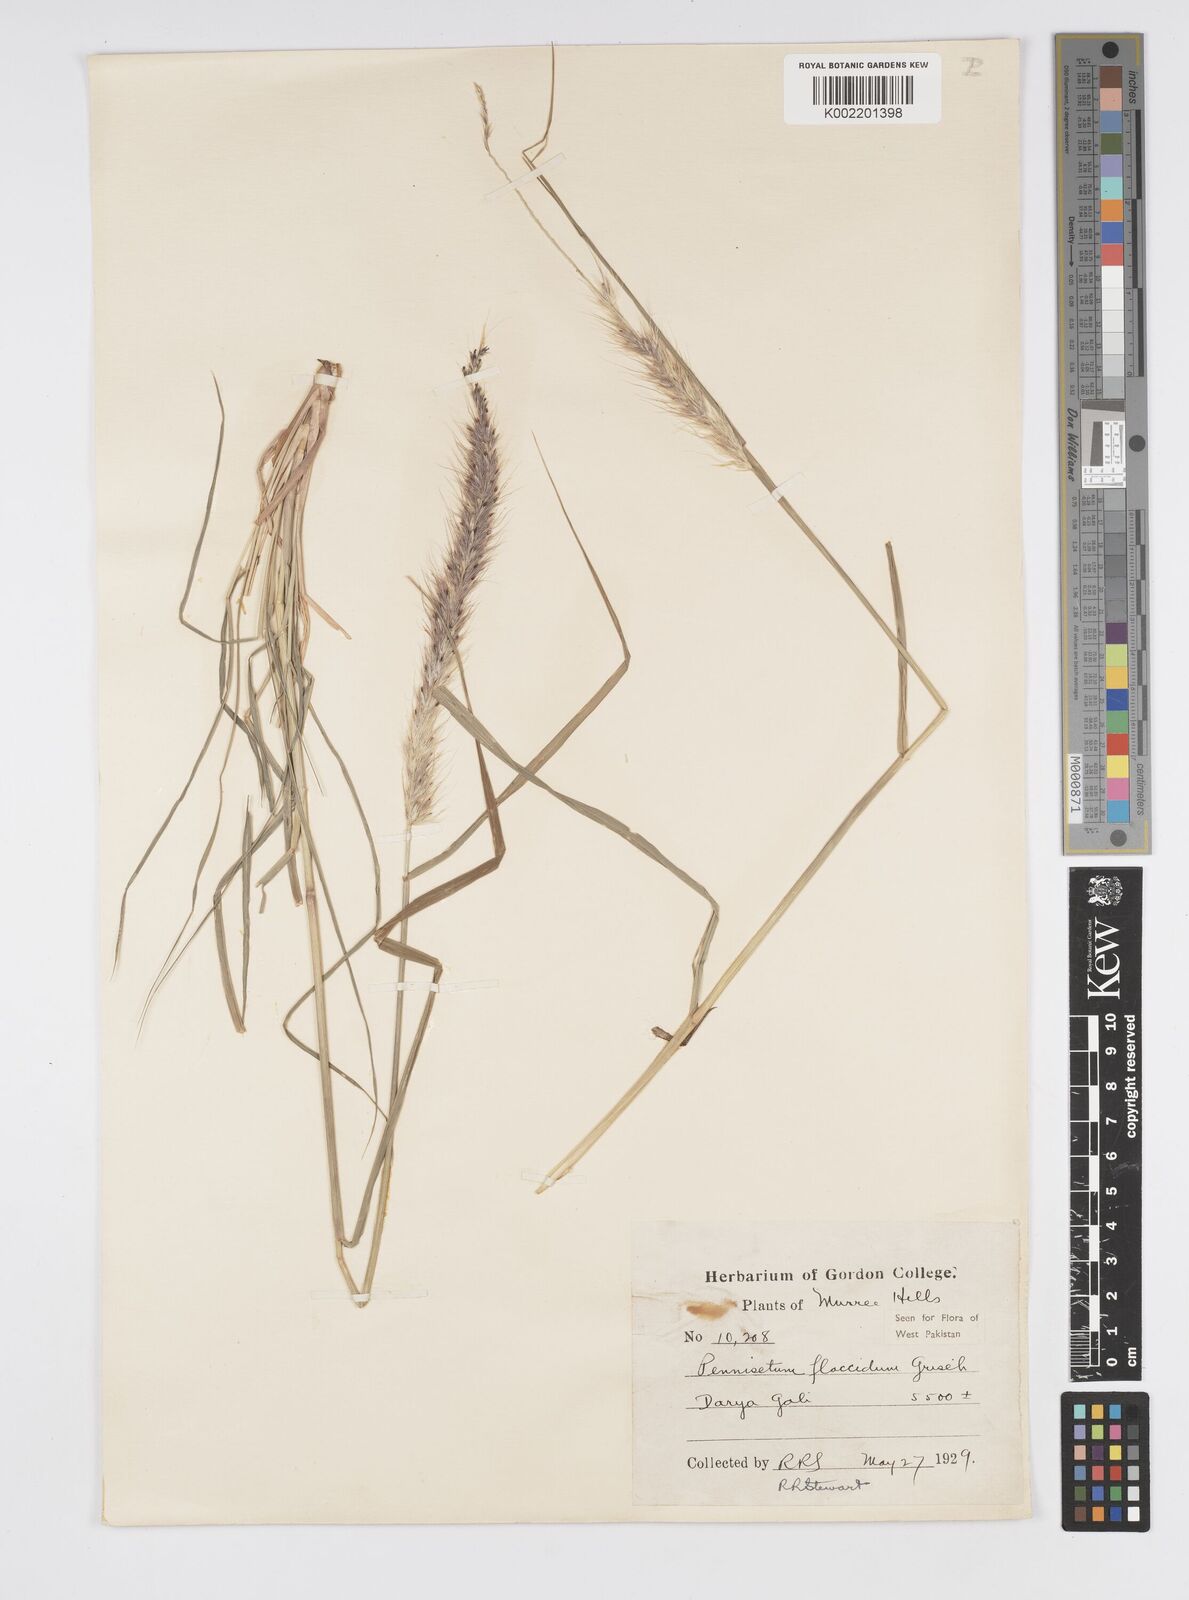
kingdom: Plantae
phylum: Tracheophyta
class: Liliopsida
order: Poales
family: Poaceae
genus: Cenchrus
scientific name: Cenchrus flaccidus
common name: Flaccid grass
